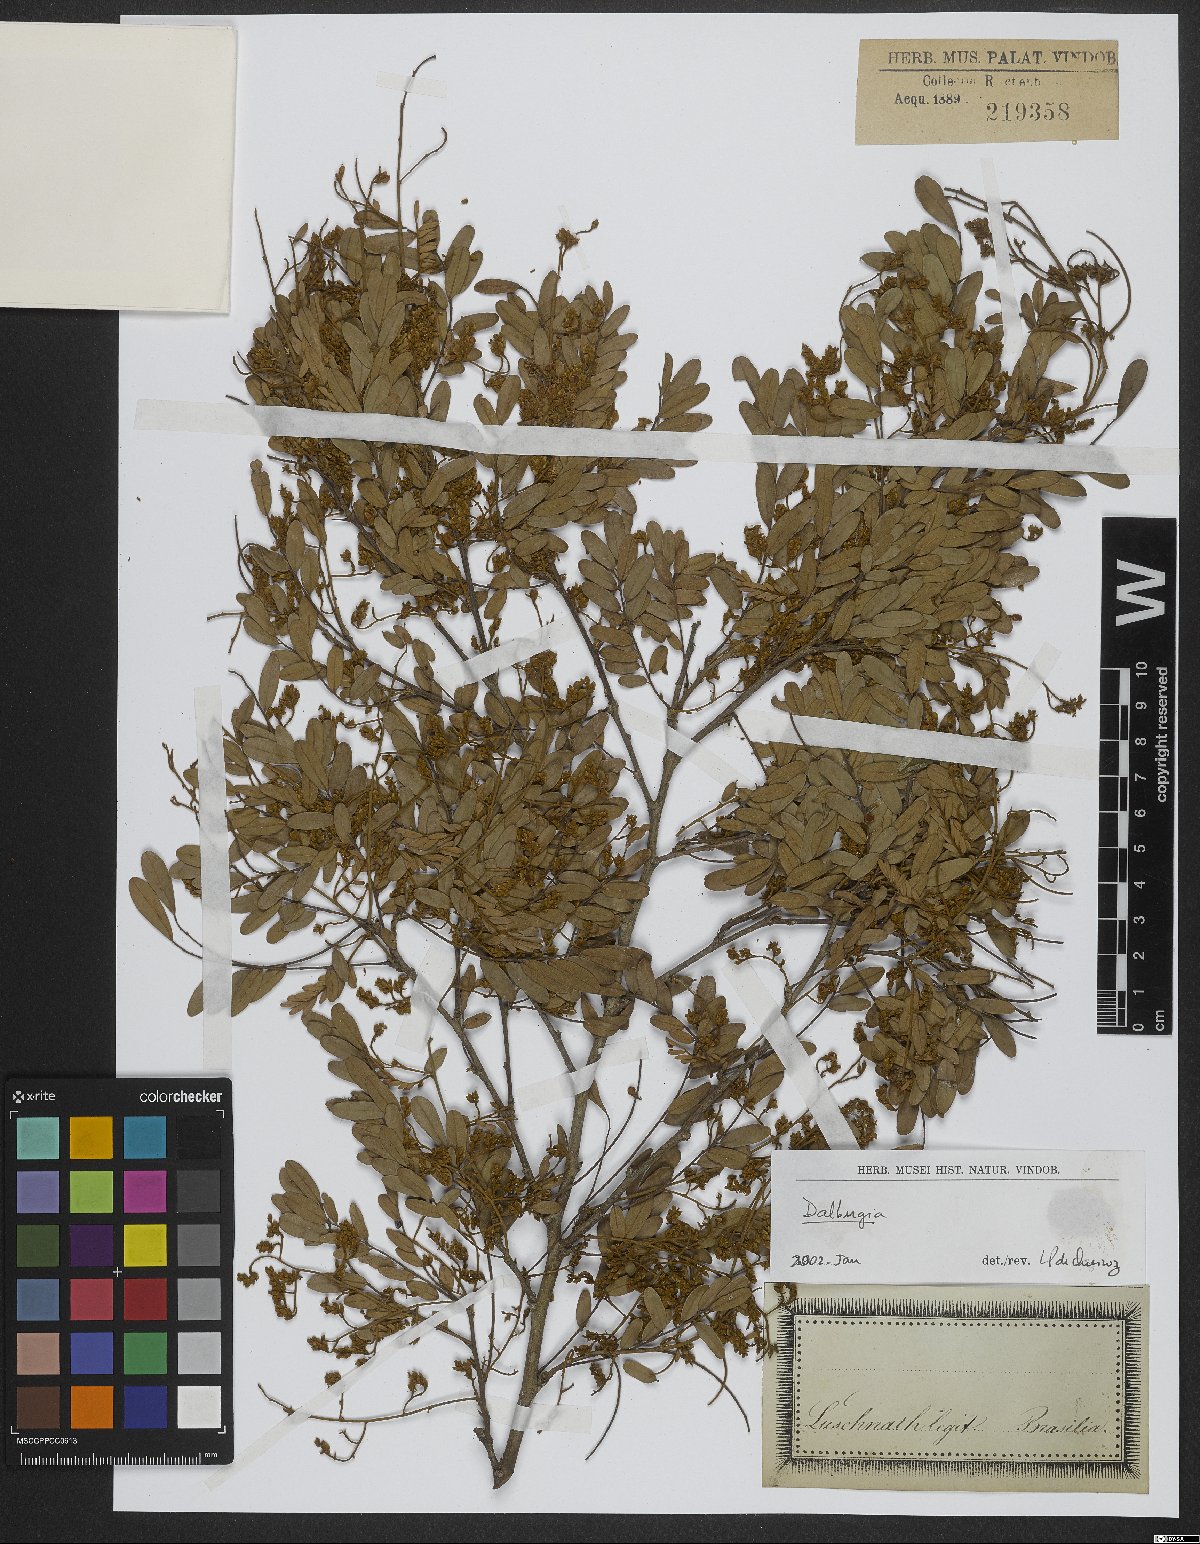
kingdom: Plantae
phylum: Tracheophyta
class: Magnoliopsida
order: Fabales
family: Fabaceae
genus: Dalbergia
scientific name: Dalbergia
